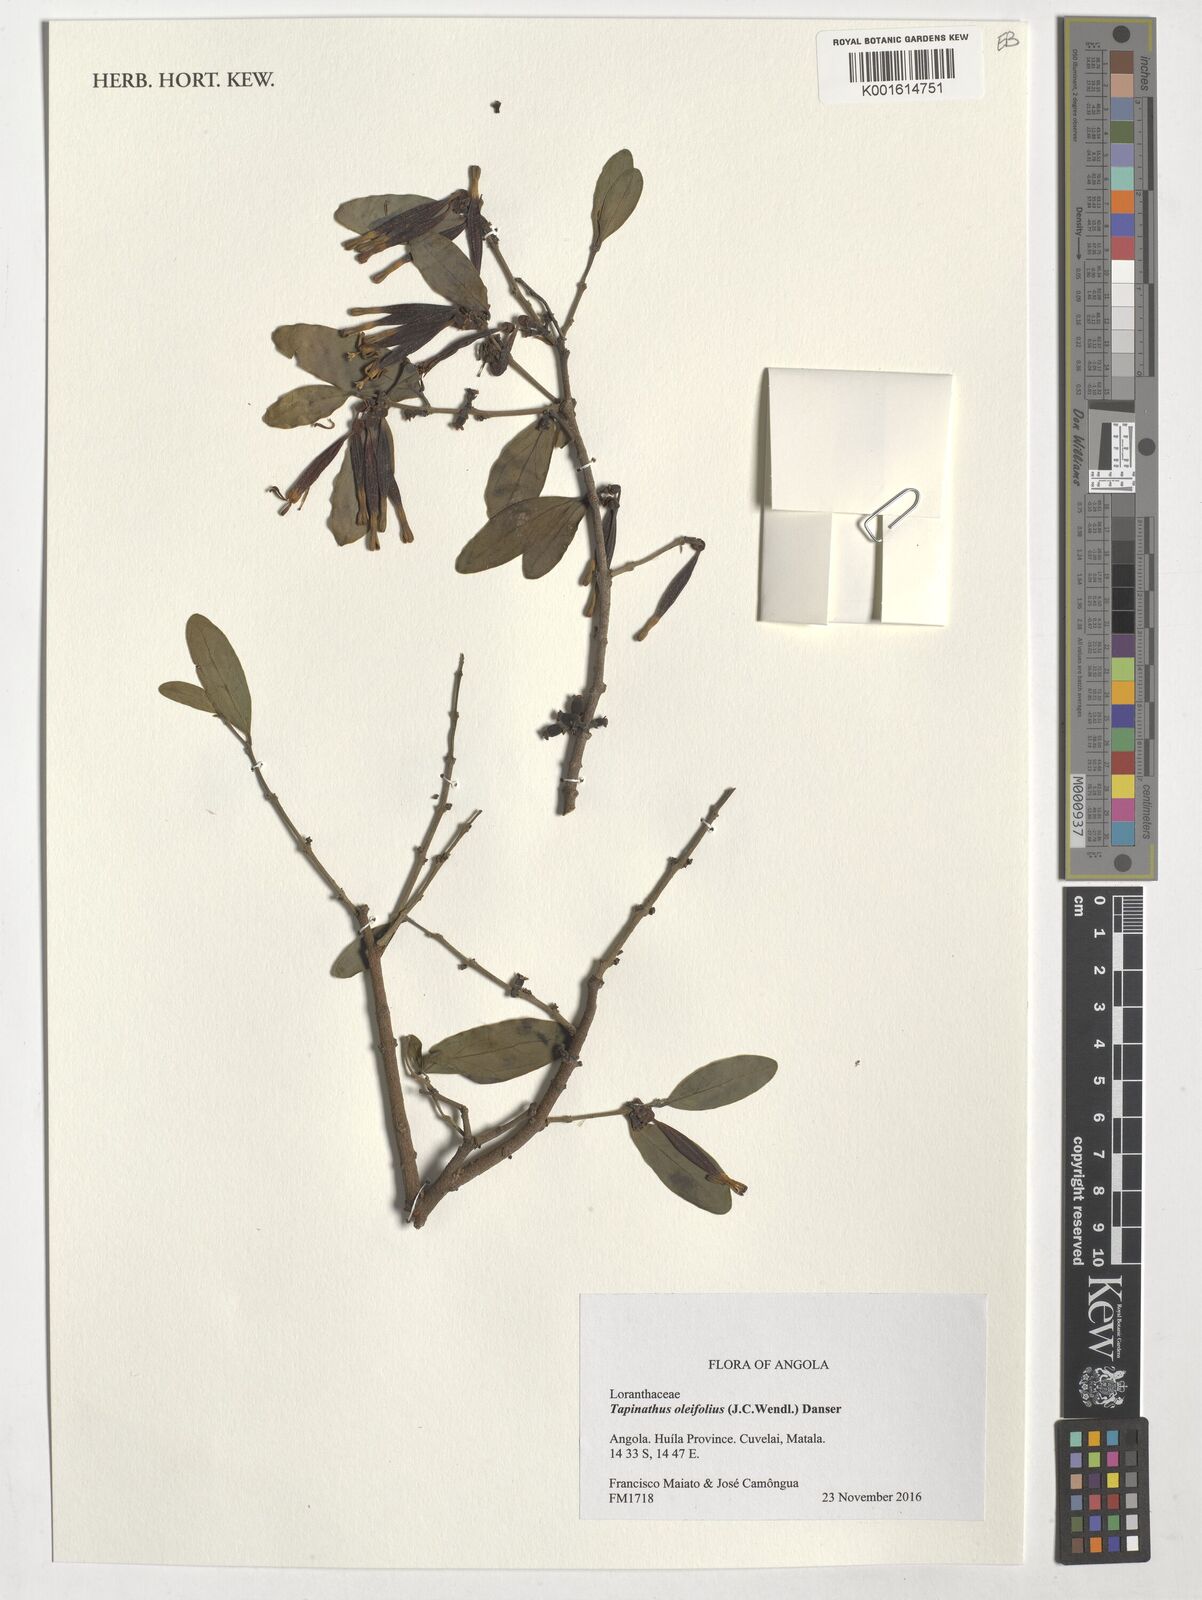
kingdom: Plantae
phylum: Tracheophyta
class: Magnoliopsida
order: Santalales
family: Loranthaceae
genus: Tapinanthus
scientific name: Tapinanthus oleifolius
